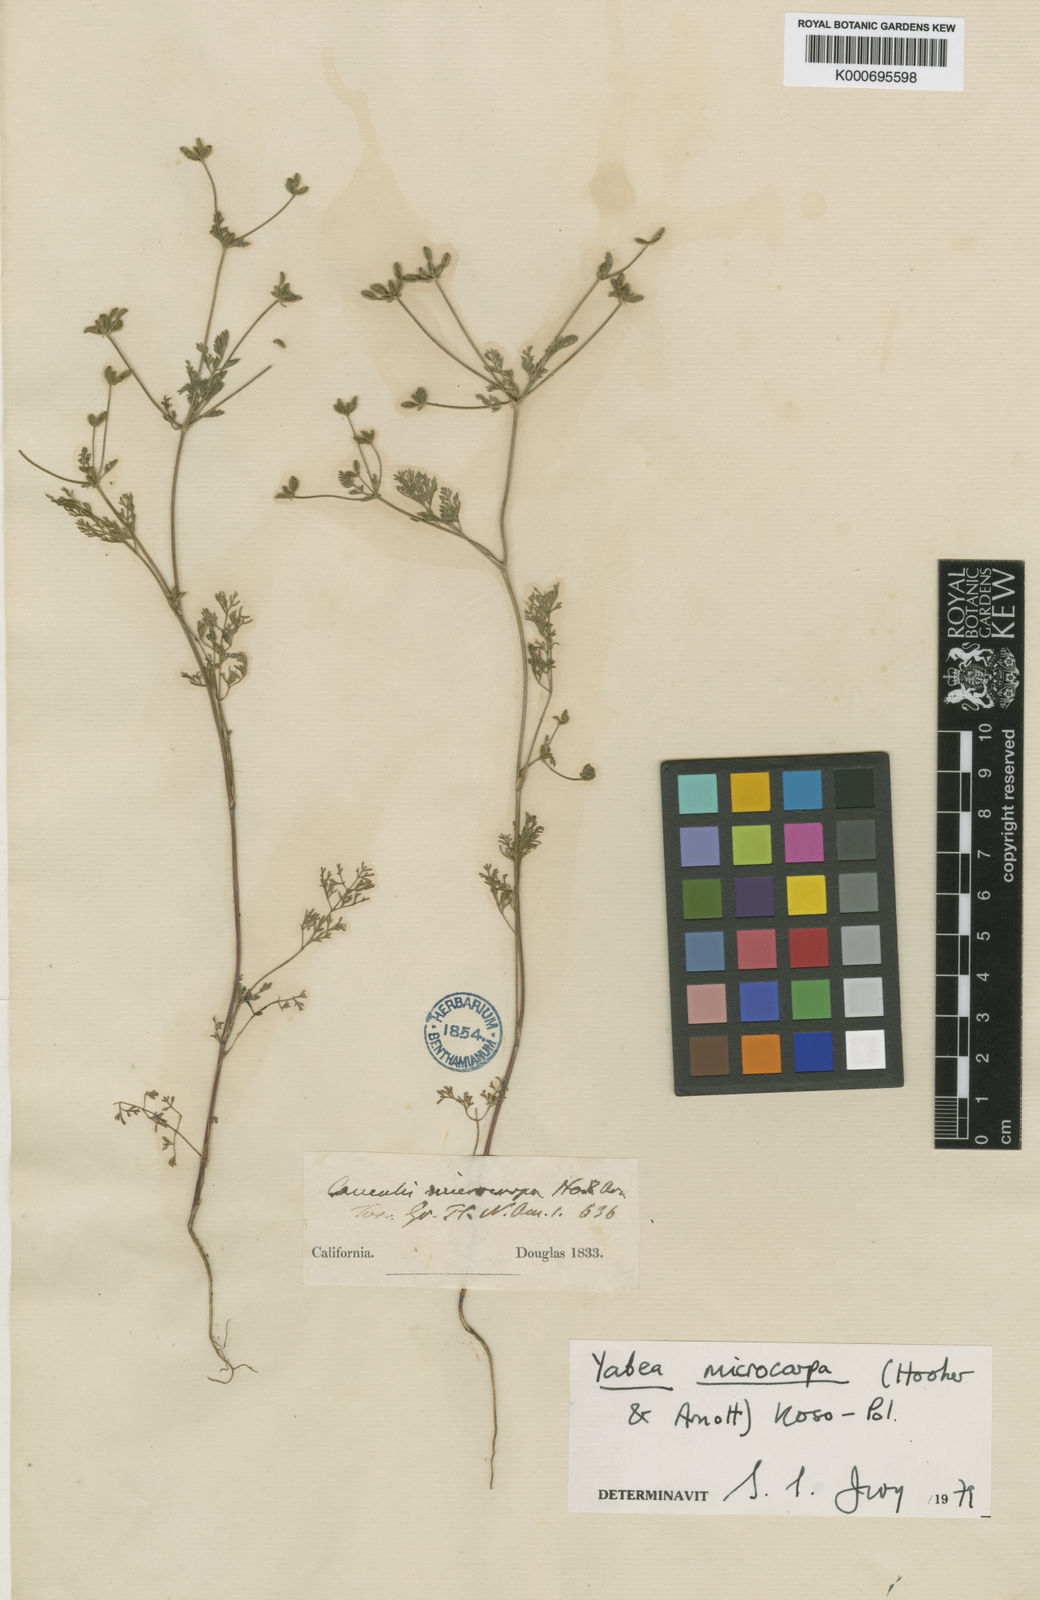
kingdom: Plantae
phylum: Tracheophyta
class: Magnoliopsida
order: Apiales
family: Apiaceae
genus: Yabea
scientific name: Yabea microcarpa
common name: False carrot
